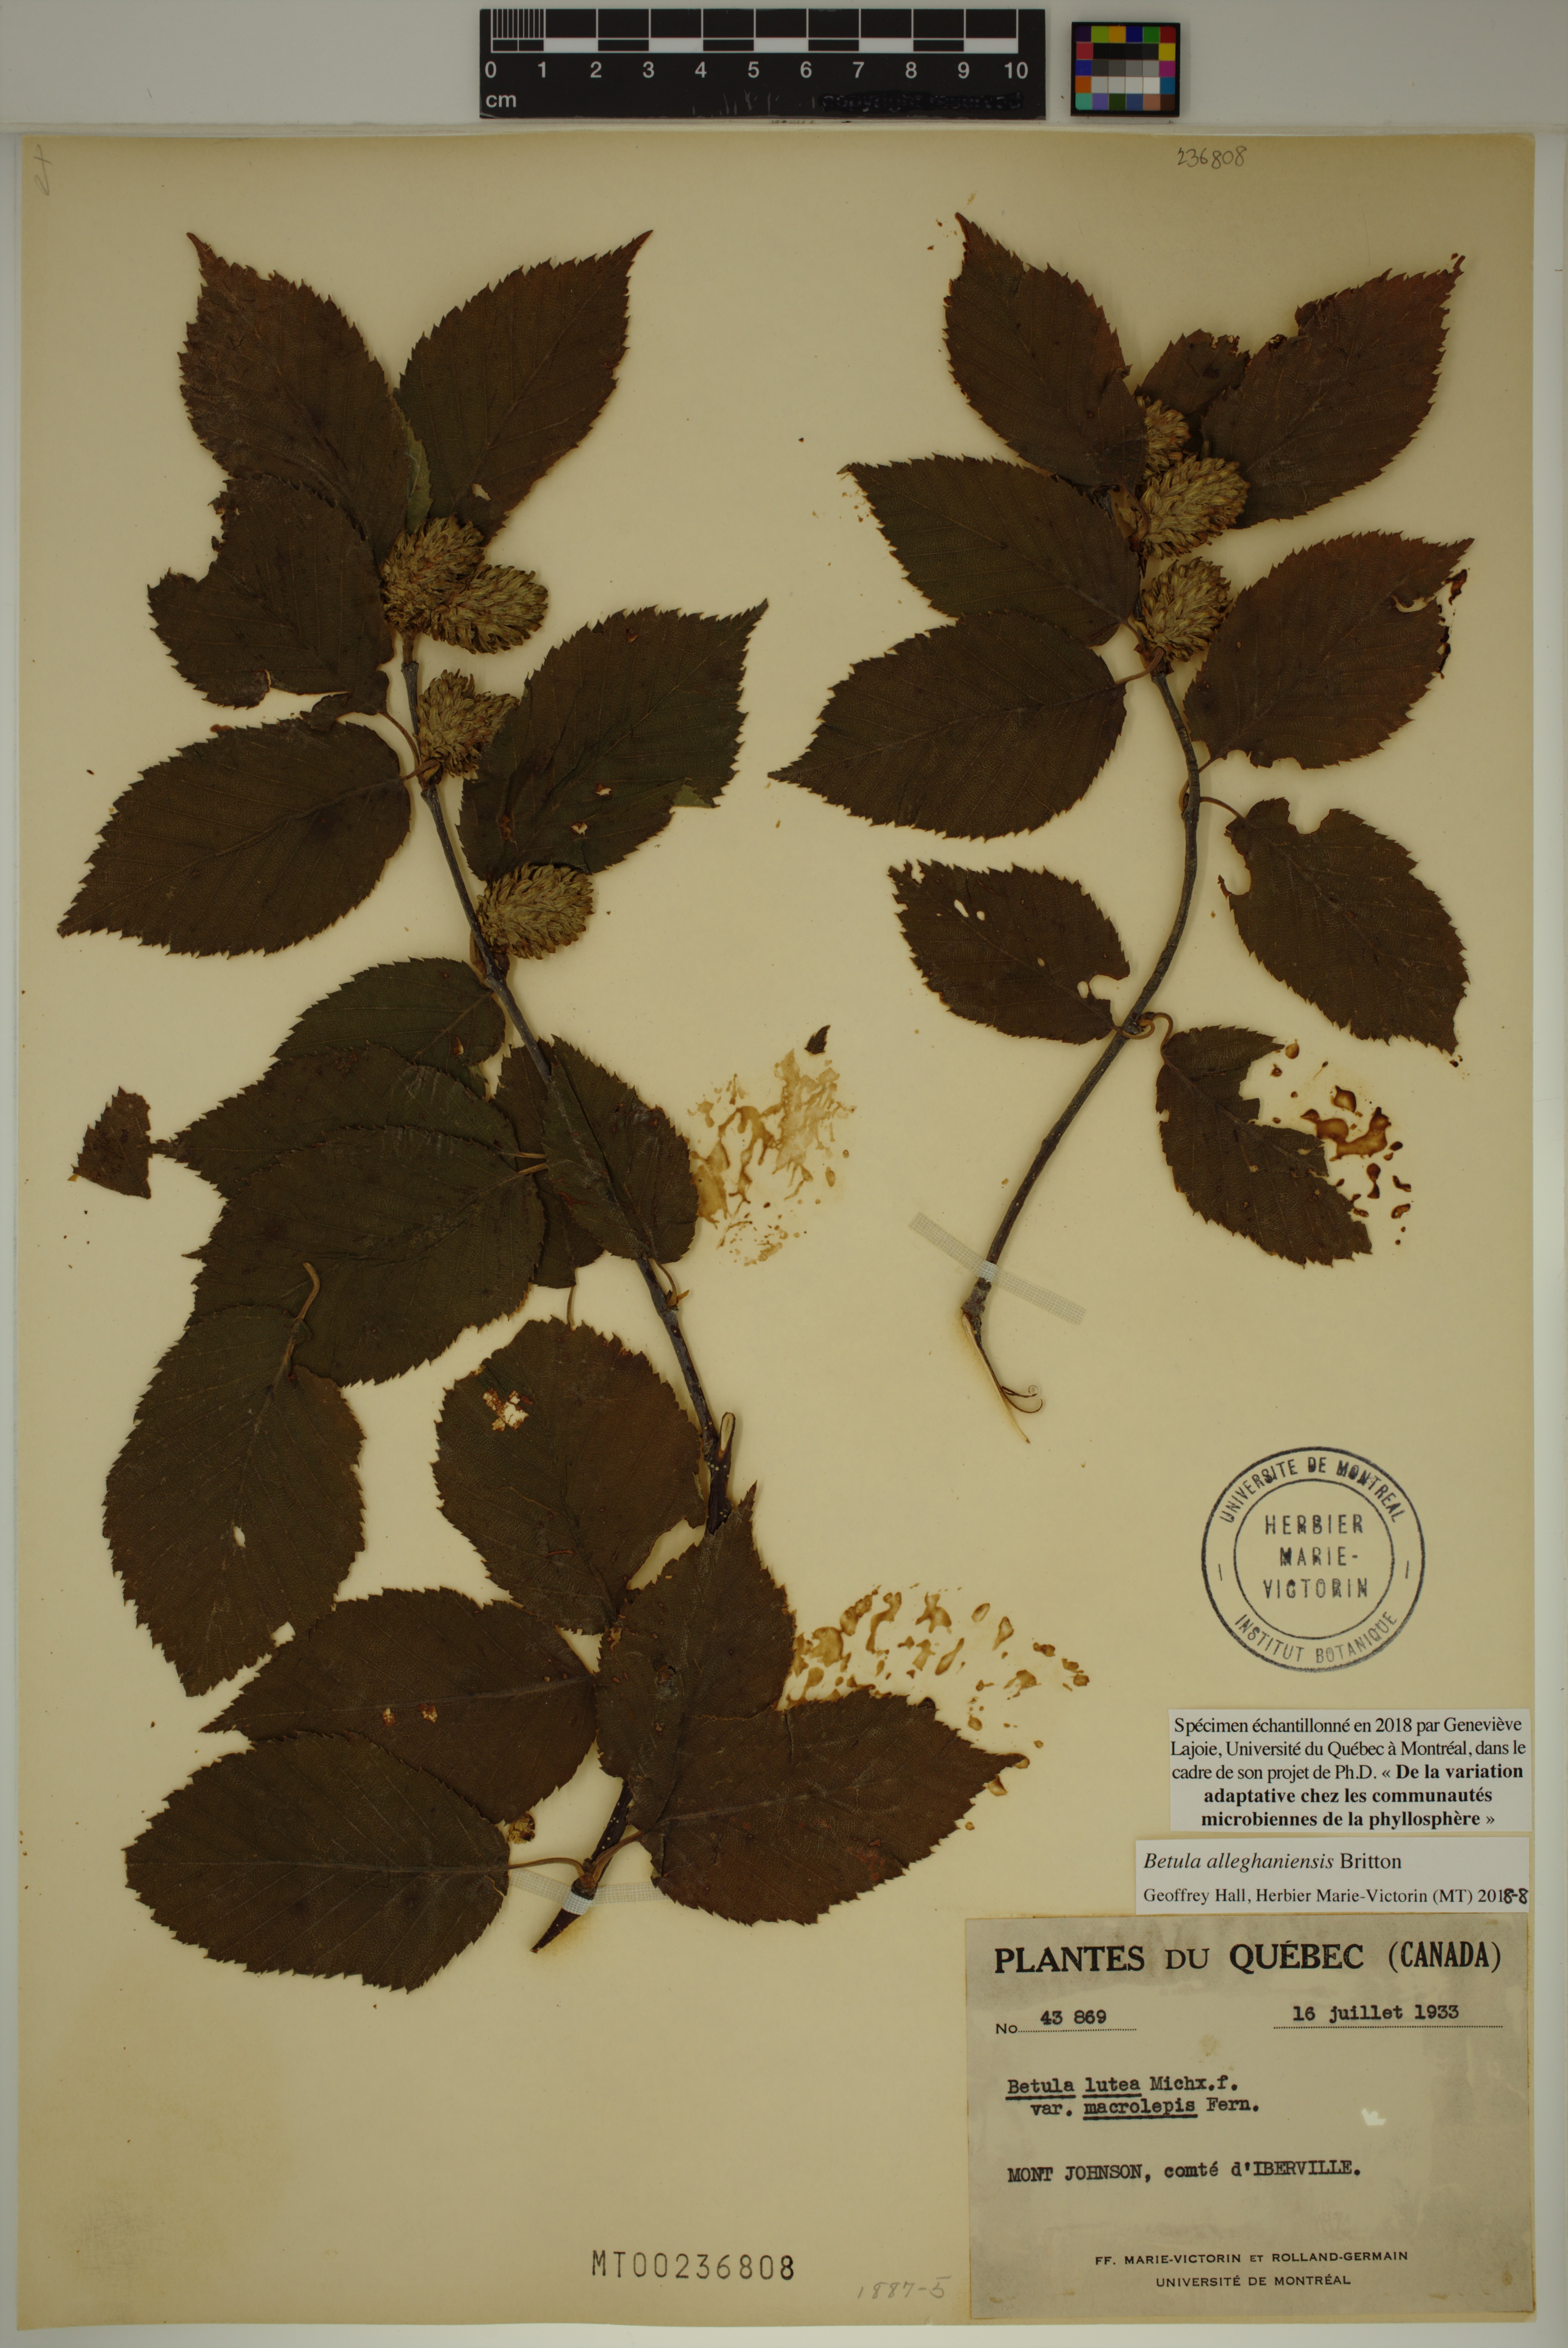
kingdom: Plantae
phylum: Tracheophyta
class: Magnoliopsida
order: Fagales
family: Betulaceae
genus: Betula
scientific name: Betula alleghaniensis
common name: Yellow birch
